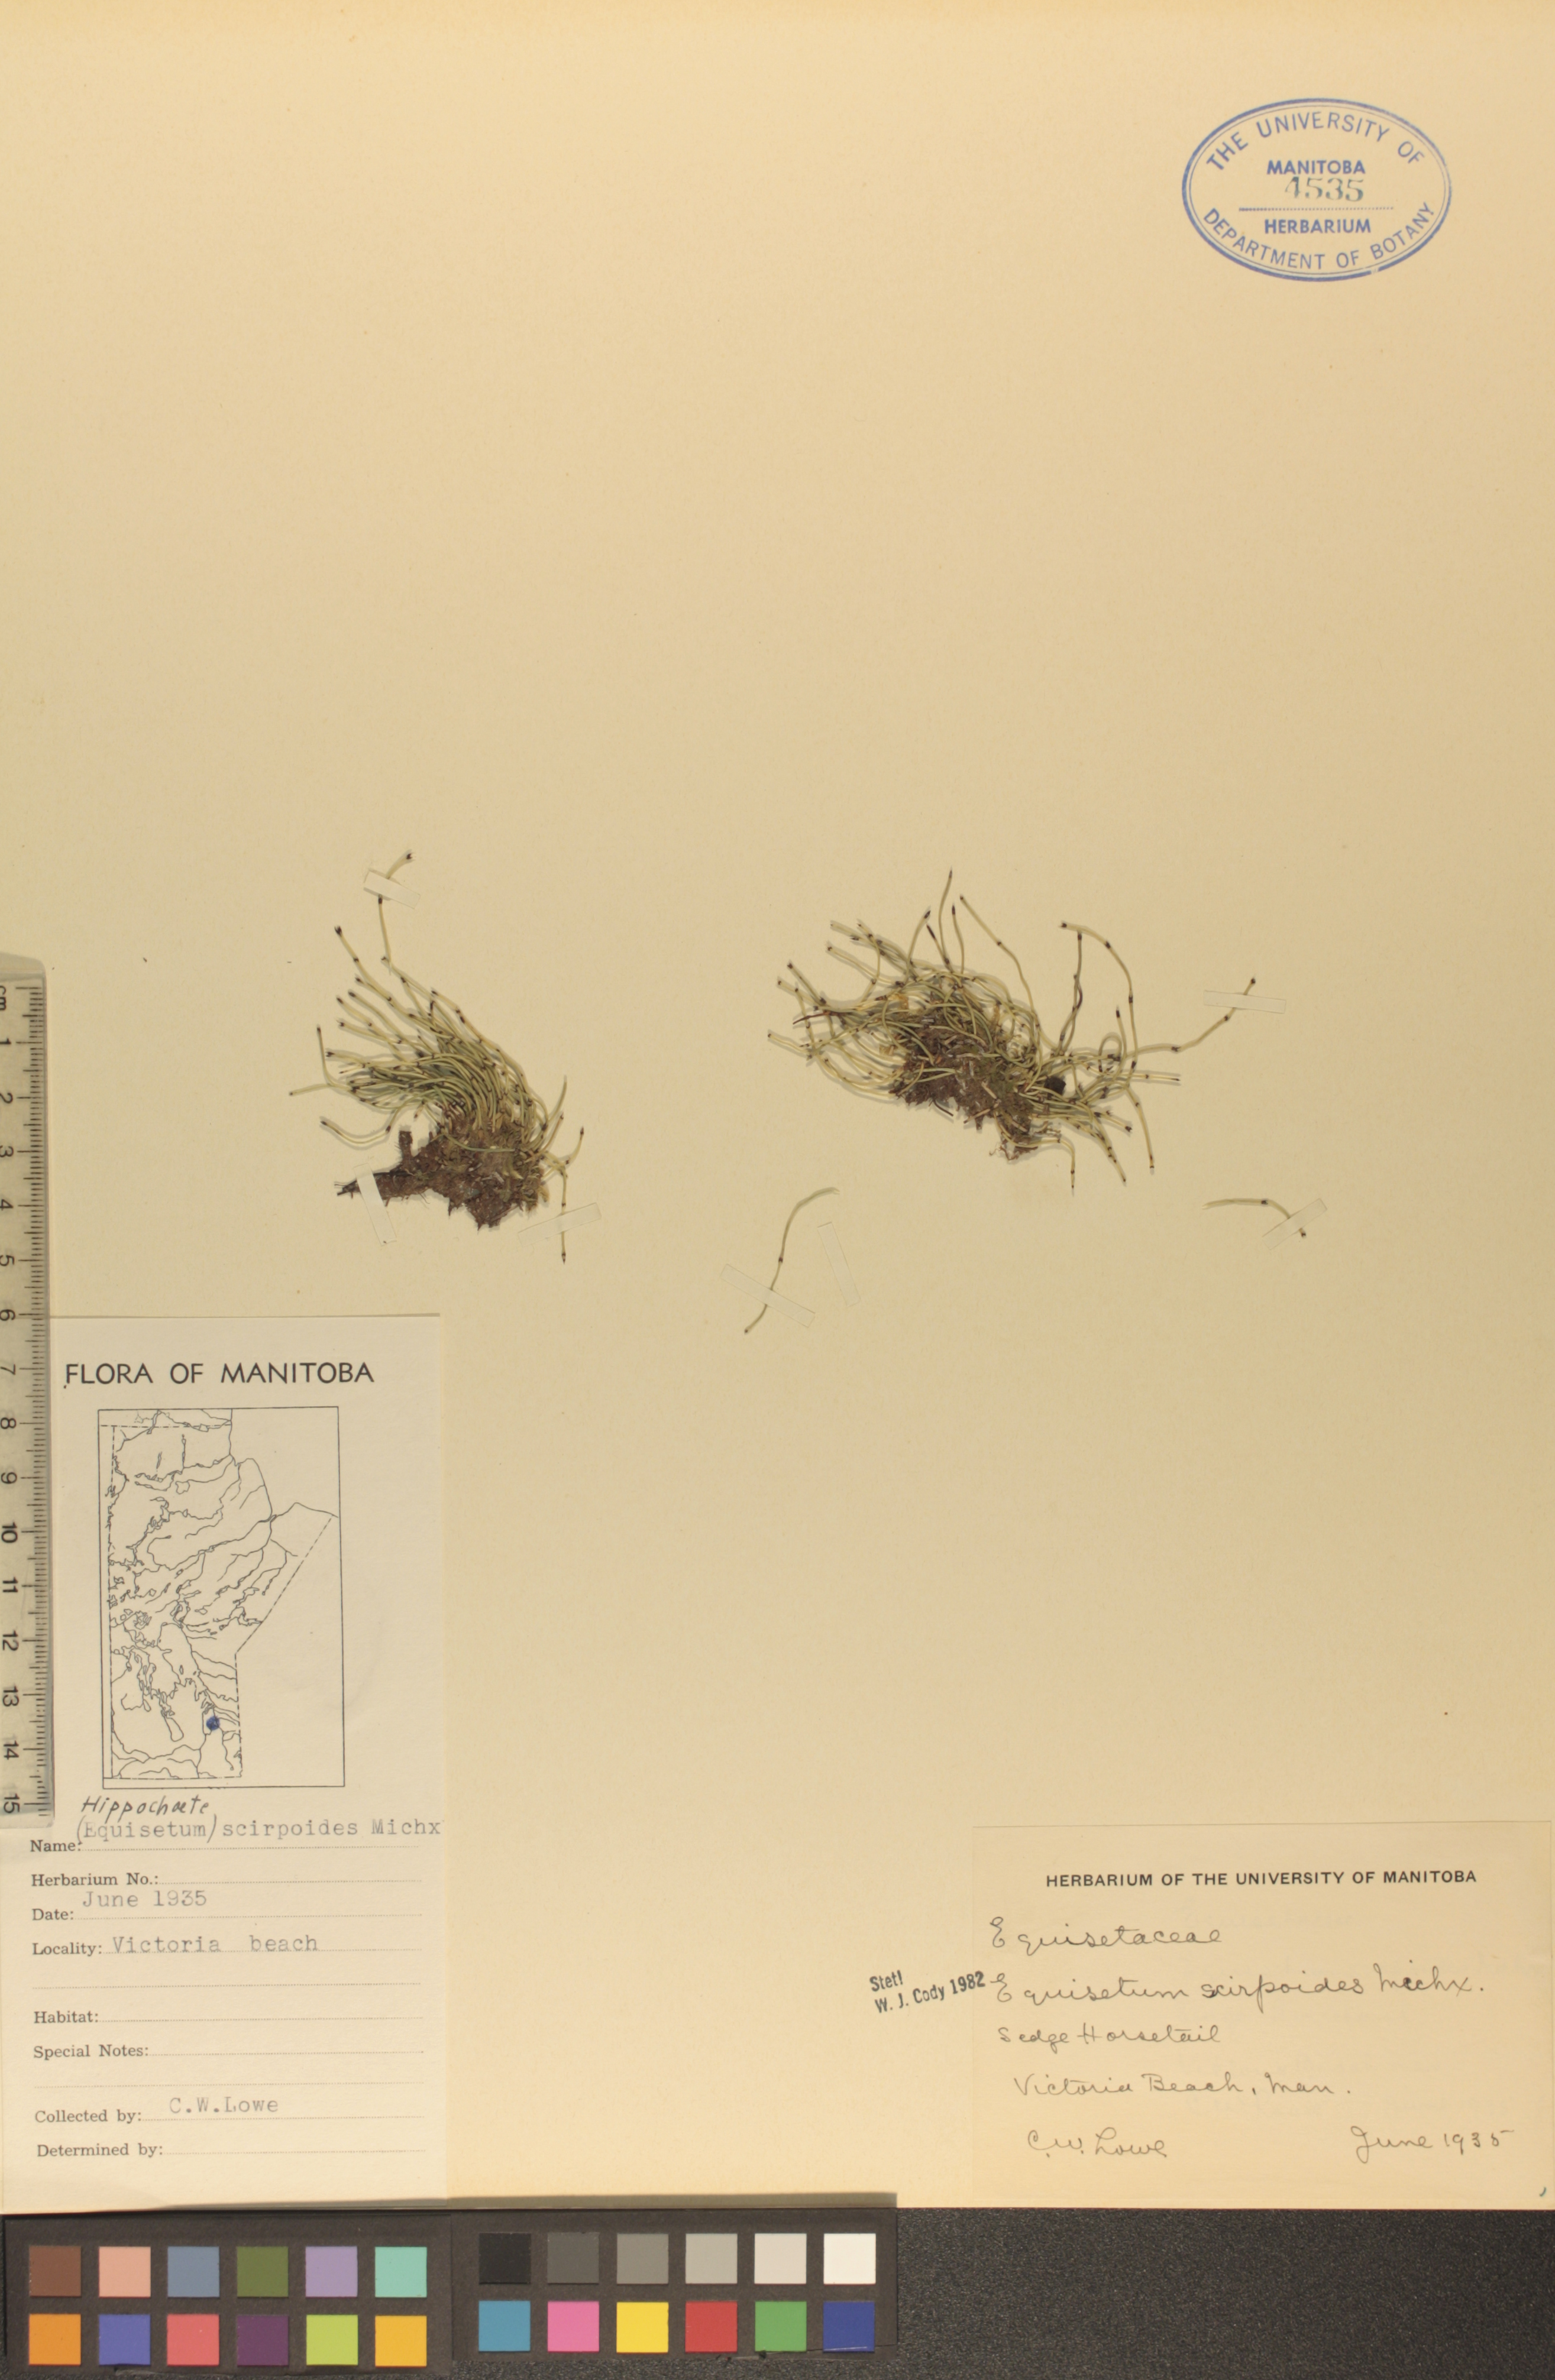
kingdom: Plantae
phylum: Tracheophyta
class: Polypodiopsida
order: Equisetales
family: Equisetaceae
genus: Equisetum
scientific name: Equisetum scirpoides
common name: Delicate horsetail
